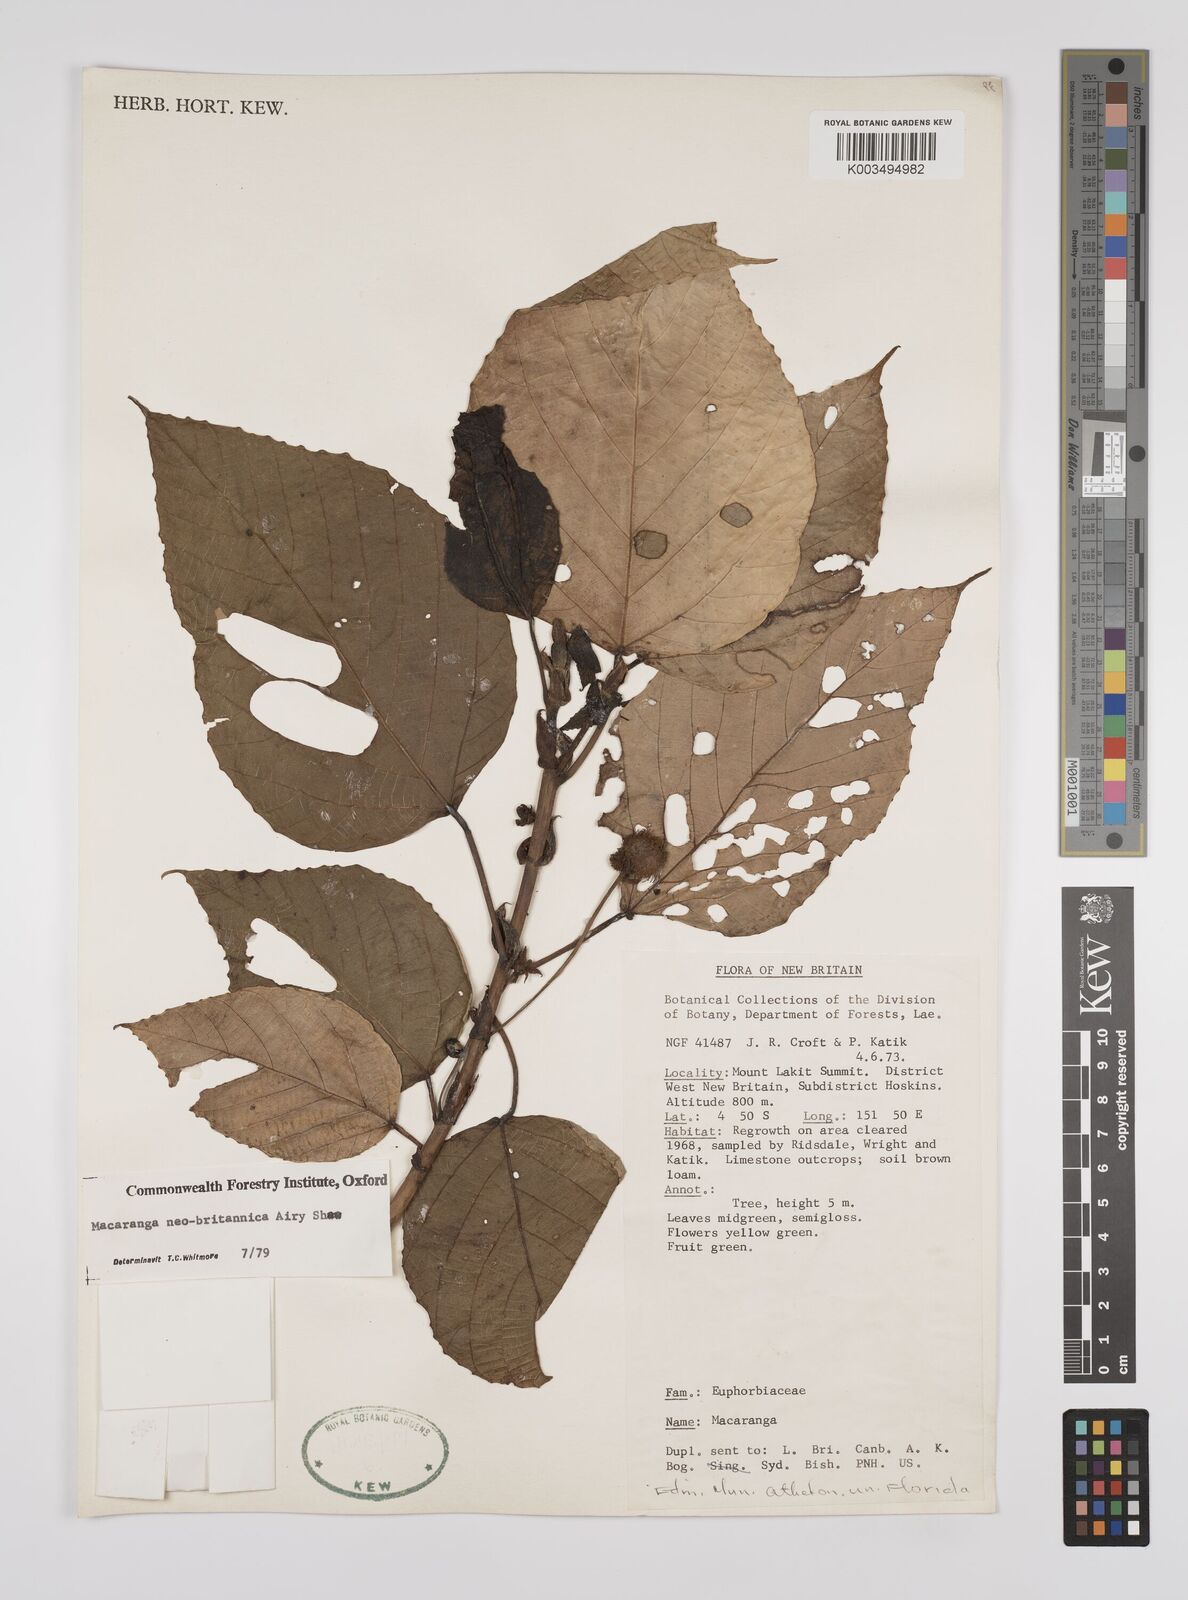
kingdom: Plantae
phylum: Tracheophyta
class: Magnoliopsida
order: Malpighiales
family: Euphorbiaceae
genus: Macaranga
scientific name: Macaranga neobritannica
